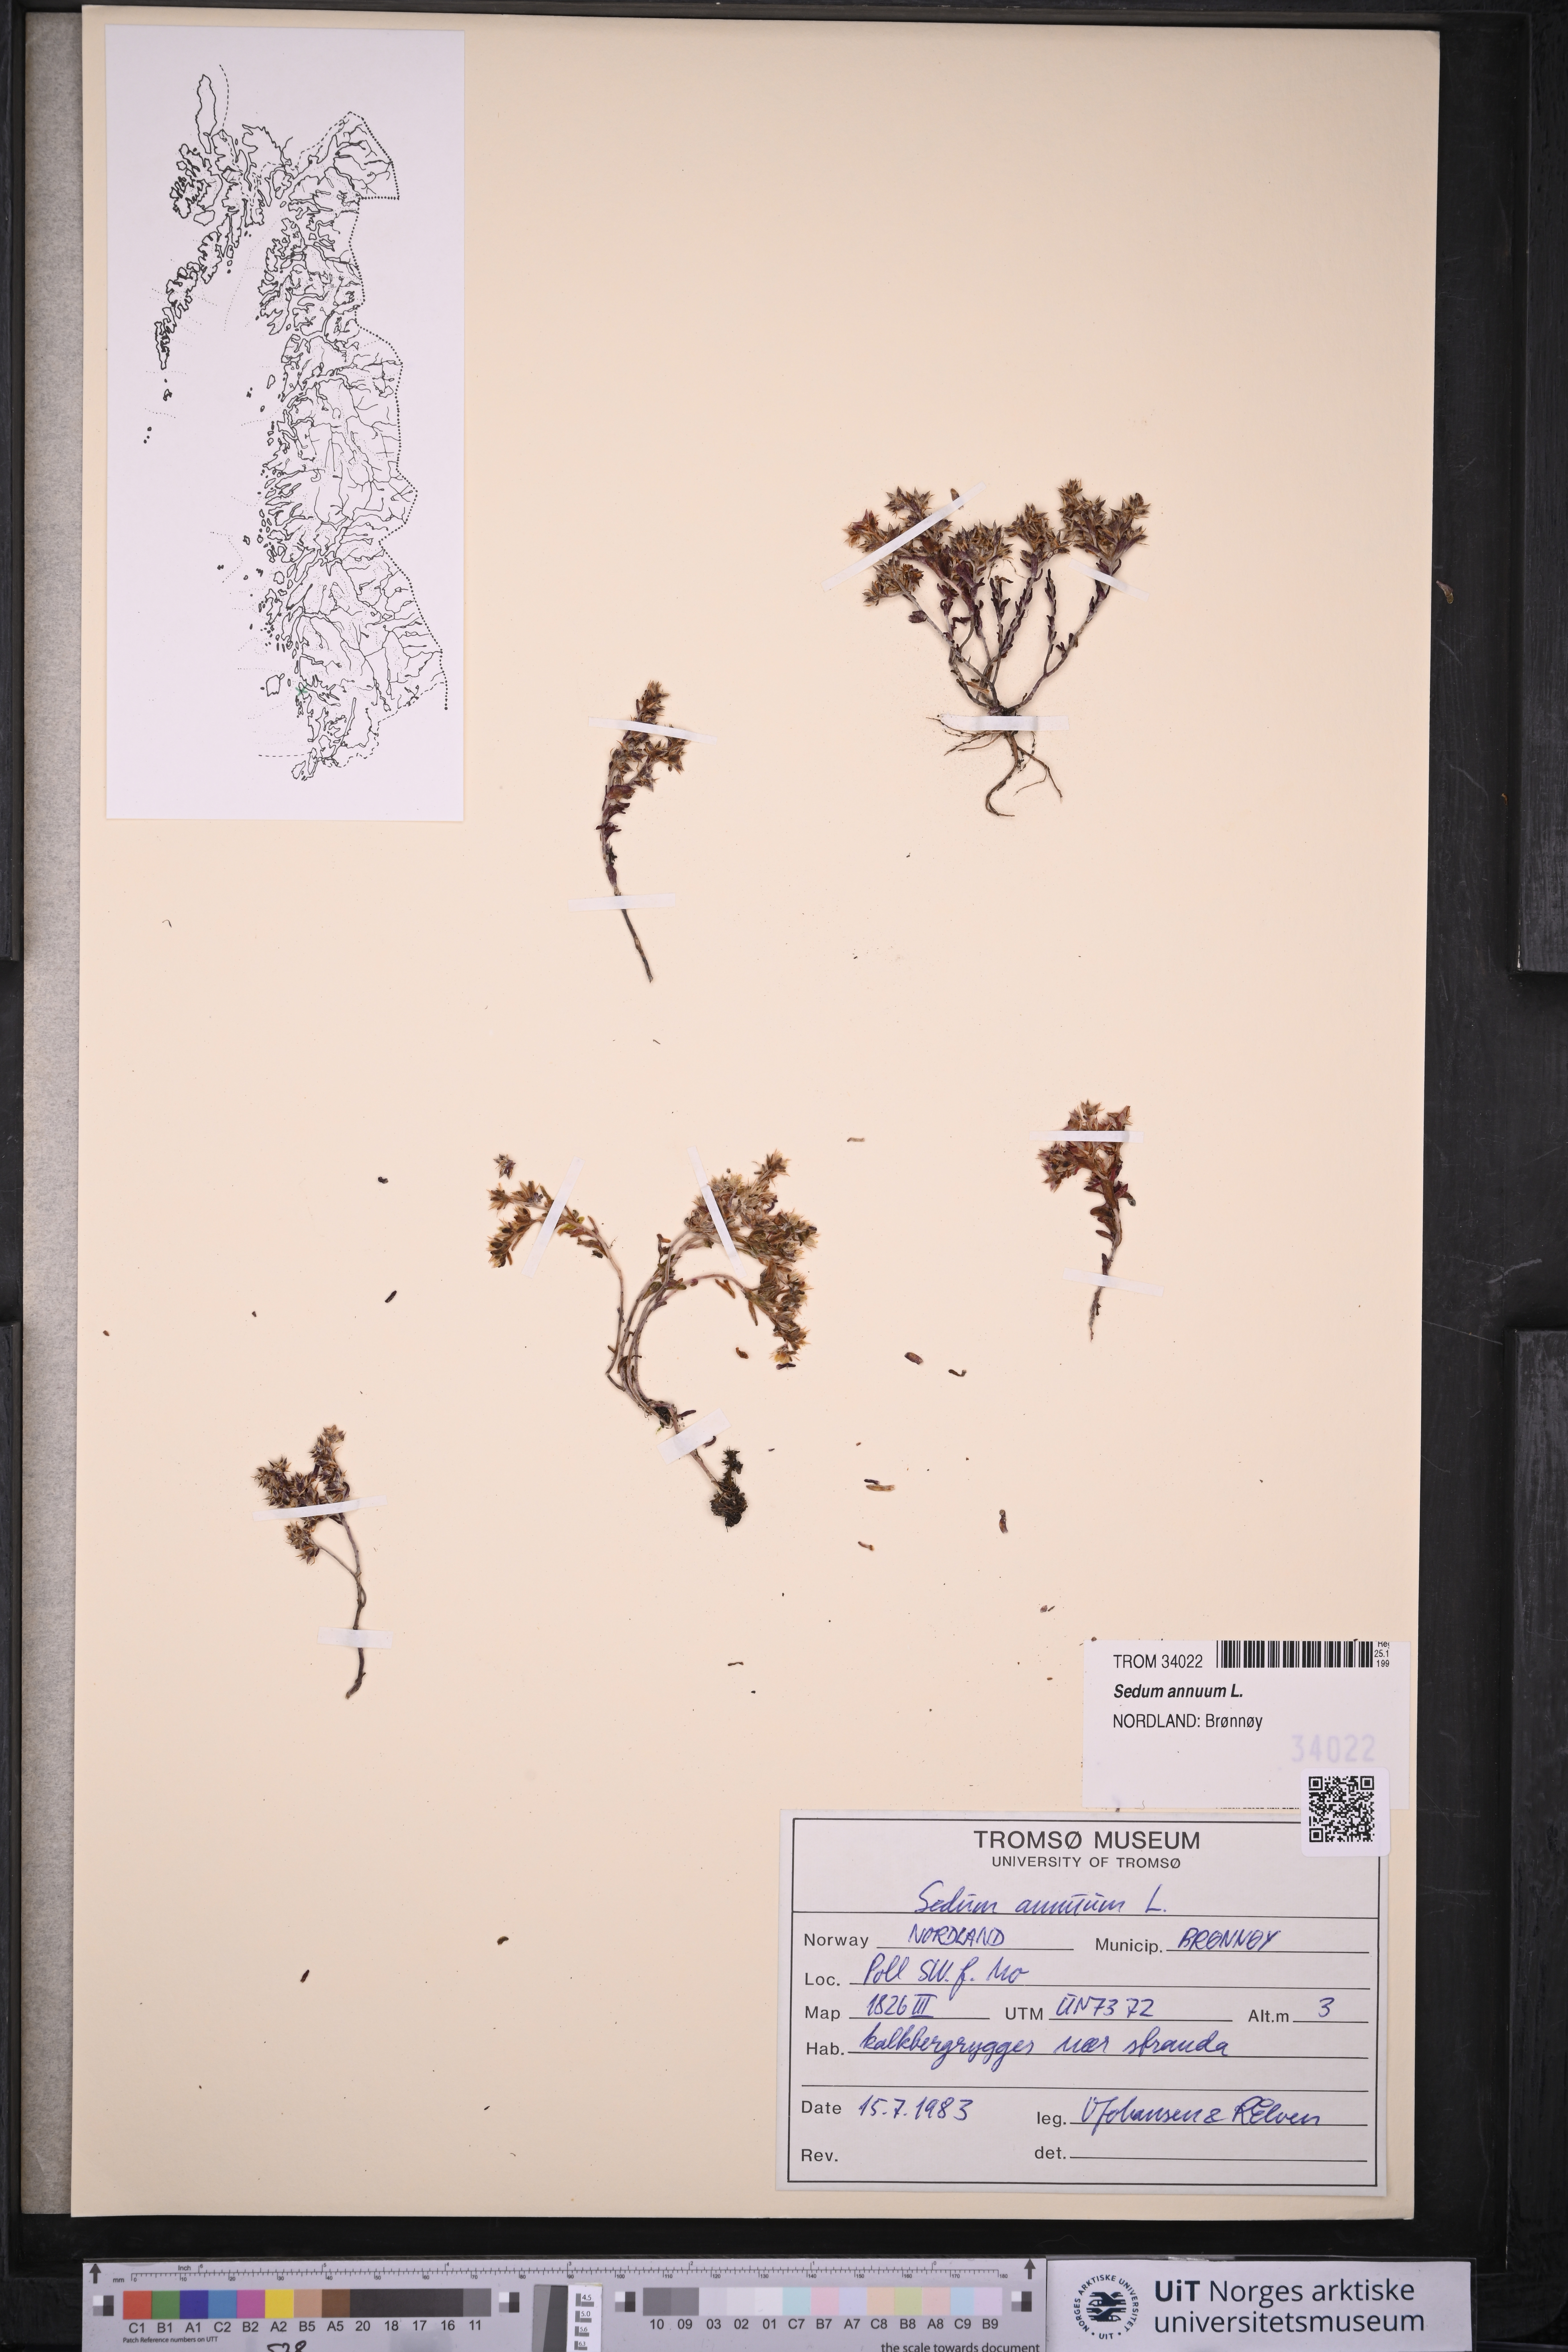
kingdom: Plantae
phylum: Tracheophyta
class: Magnoliopsida
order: Saxifragales
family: Crassulaceae
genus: Sedum
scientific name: Sedum annuum
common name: Annual stonecrop
